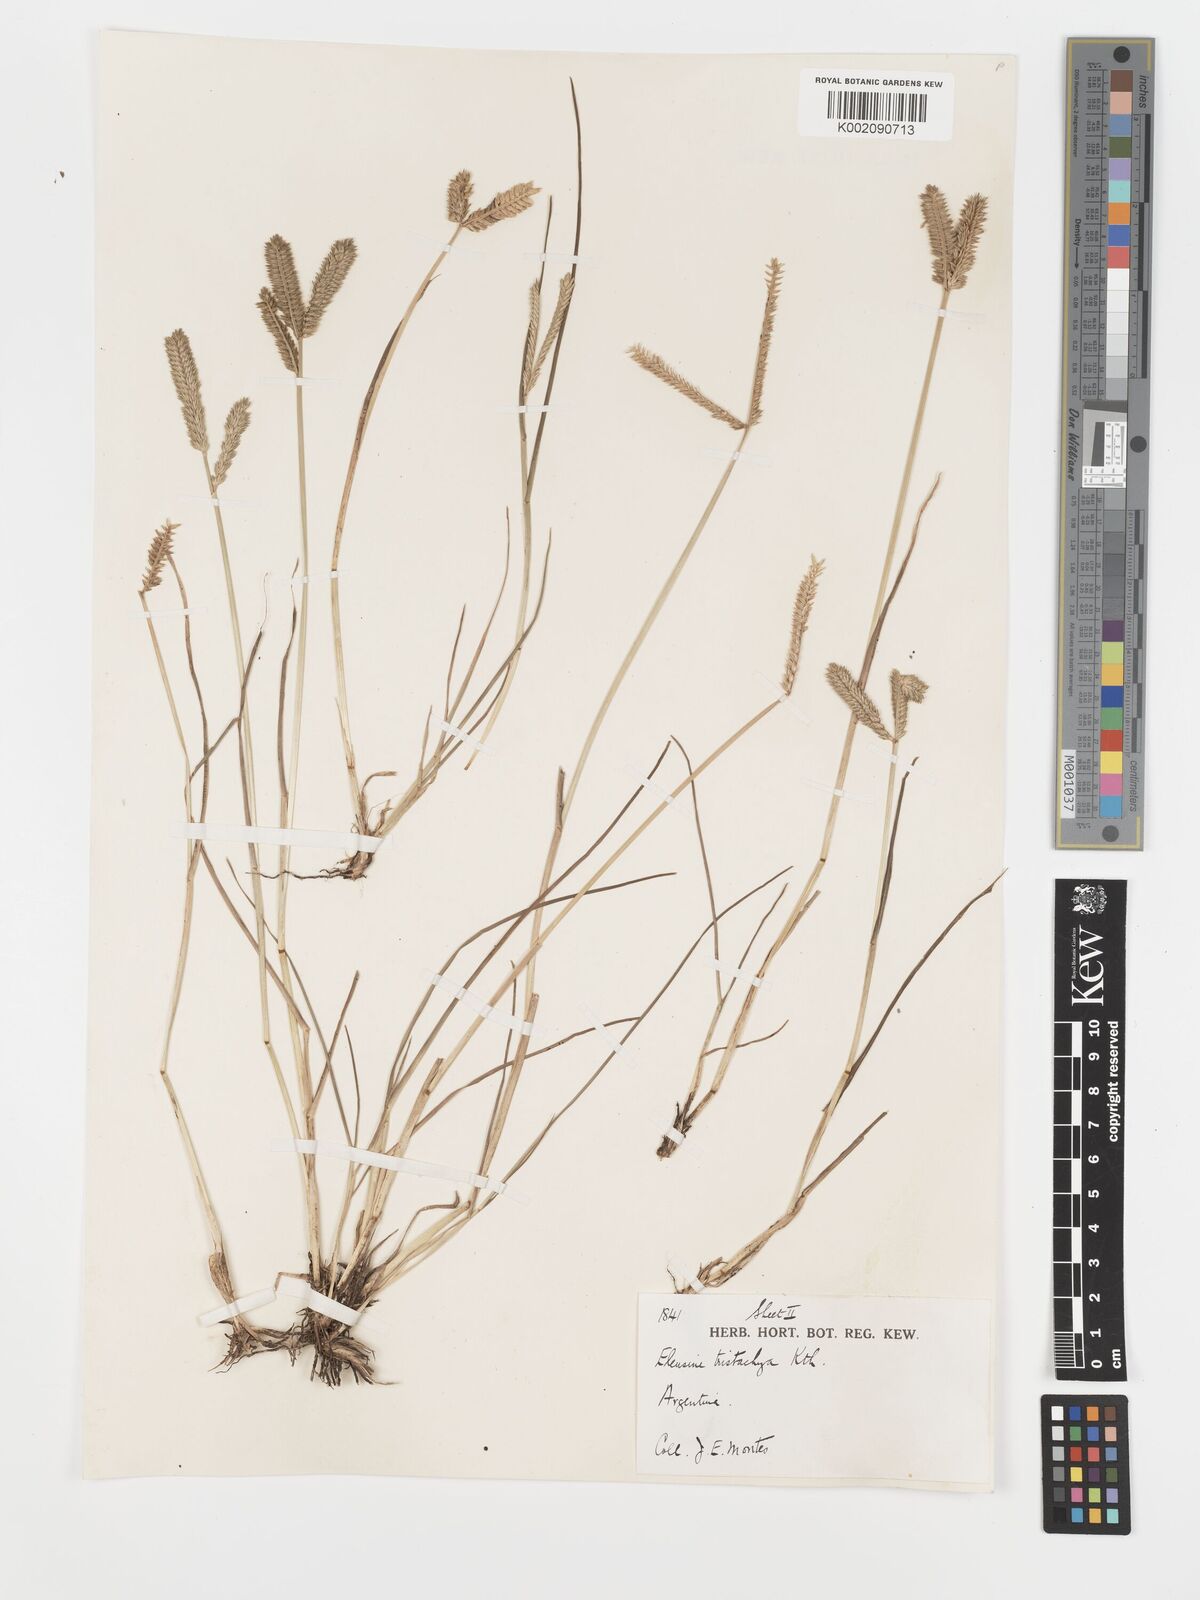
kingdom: Plantae
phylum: Tracheophyta
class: Liliopsida
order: Poales
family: Poaceae
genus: Eleusine
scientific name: Eleusine tristachya
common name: American yard-grass
